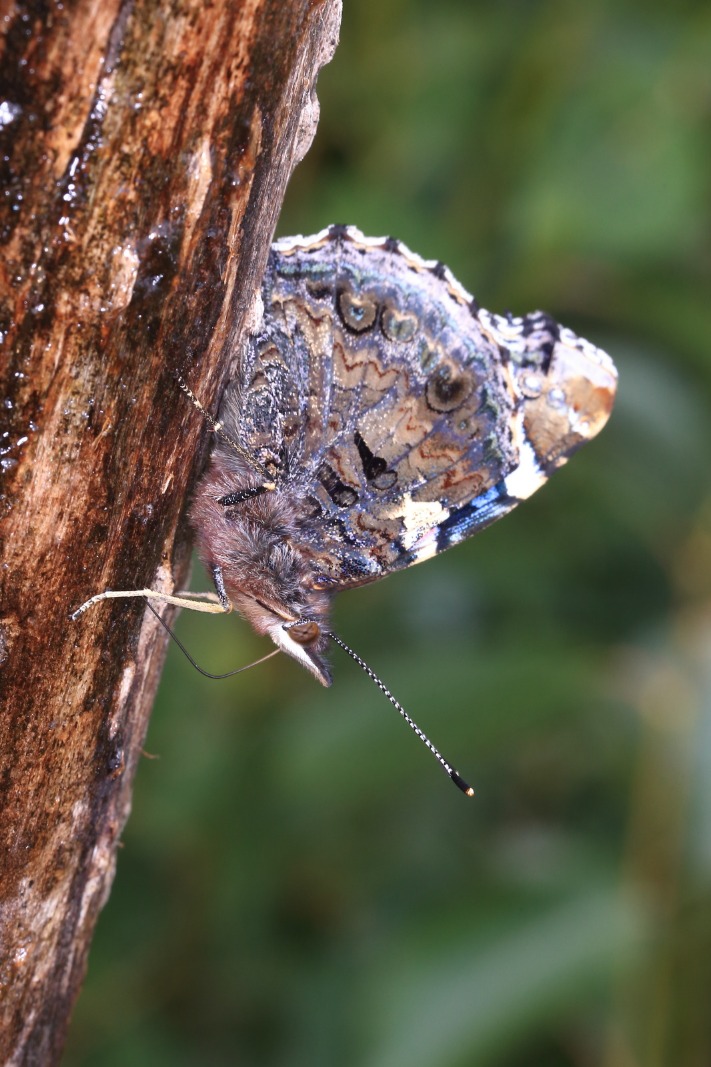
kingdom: Animalia
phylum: Arthropoda
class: Insecta
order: Lepidoptera
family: Nymphalidae
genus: Vanessa
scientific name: Vanessa atalanta
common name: Admiral
